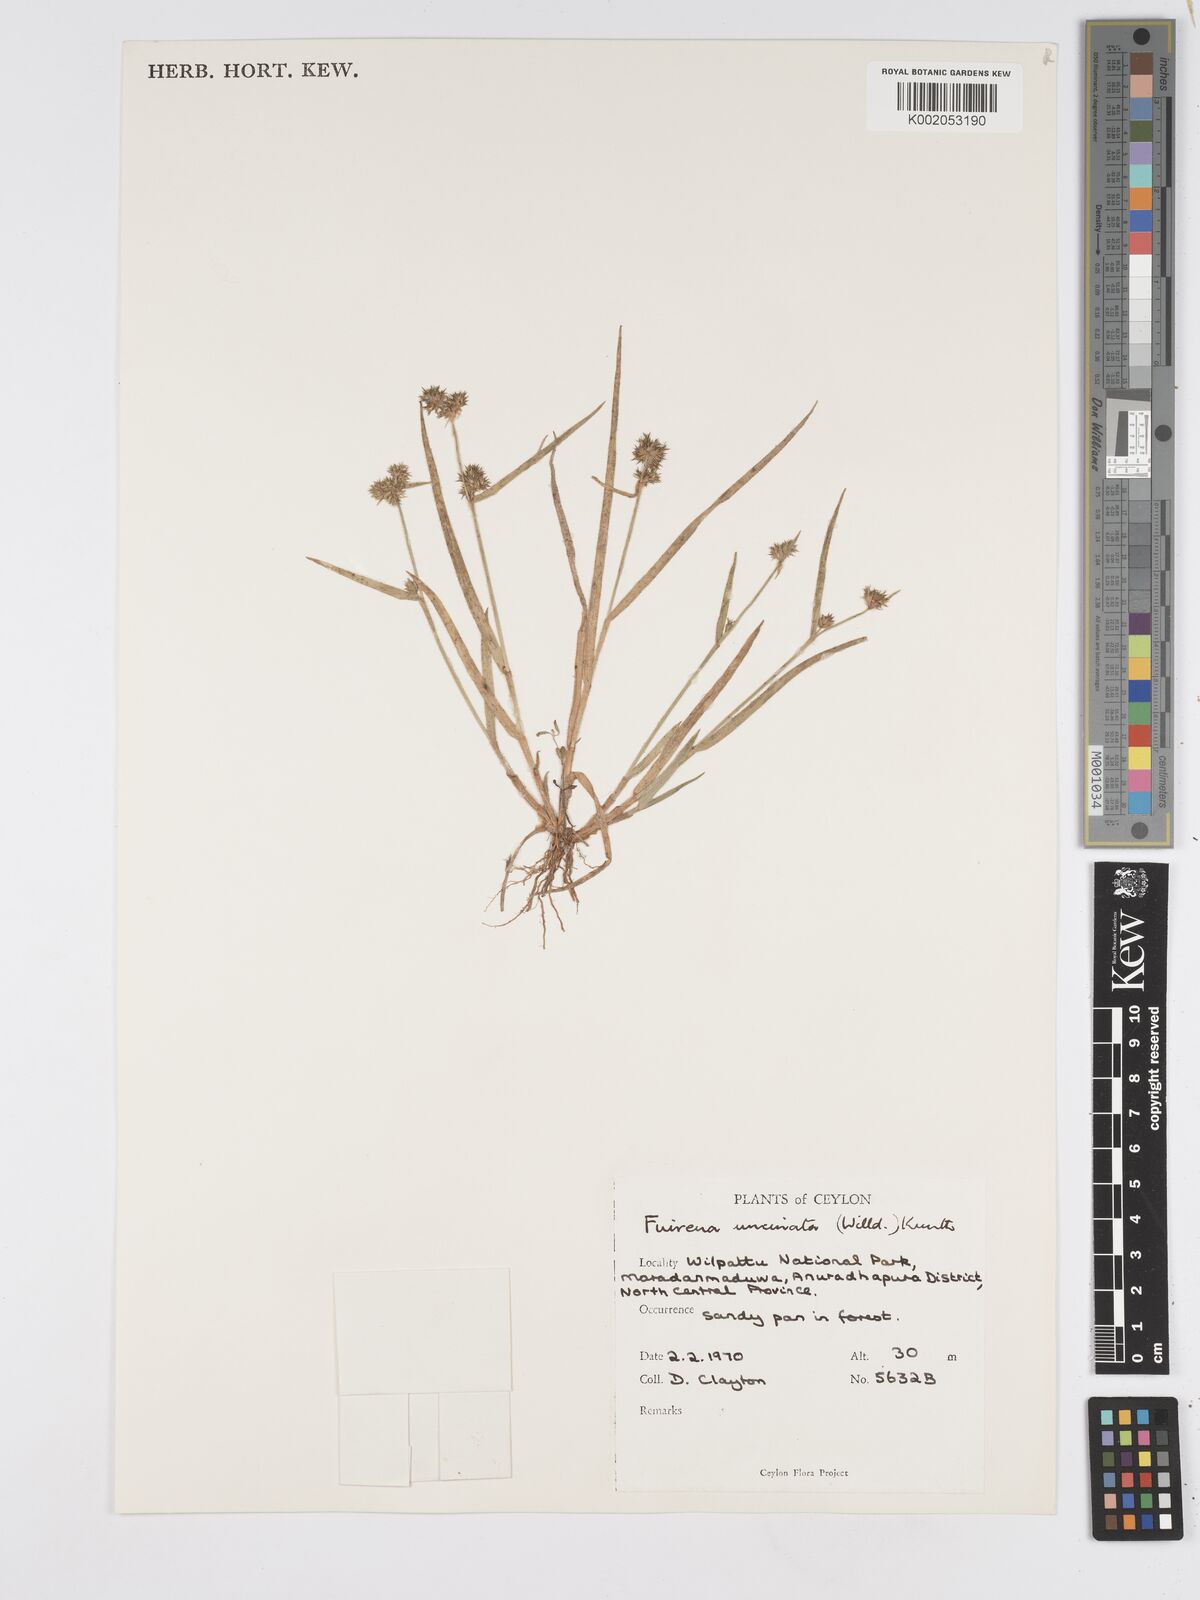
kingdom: Plantae
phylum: Tracheophyta
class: Liliopsida
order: Poales
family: Cyperaceae
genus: Fuirena
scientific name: Fuirena uncinata
